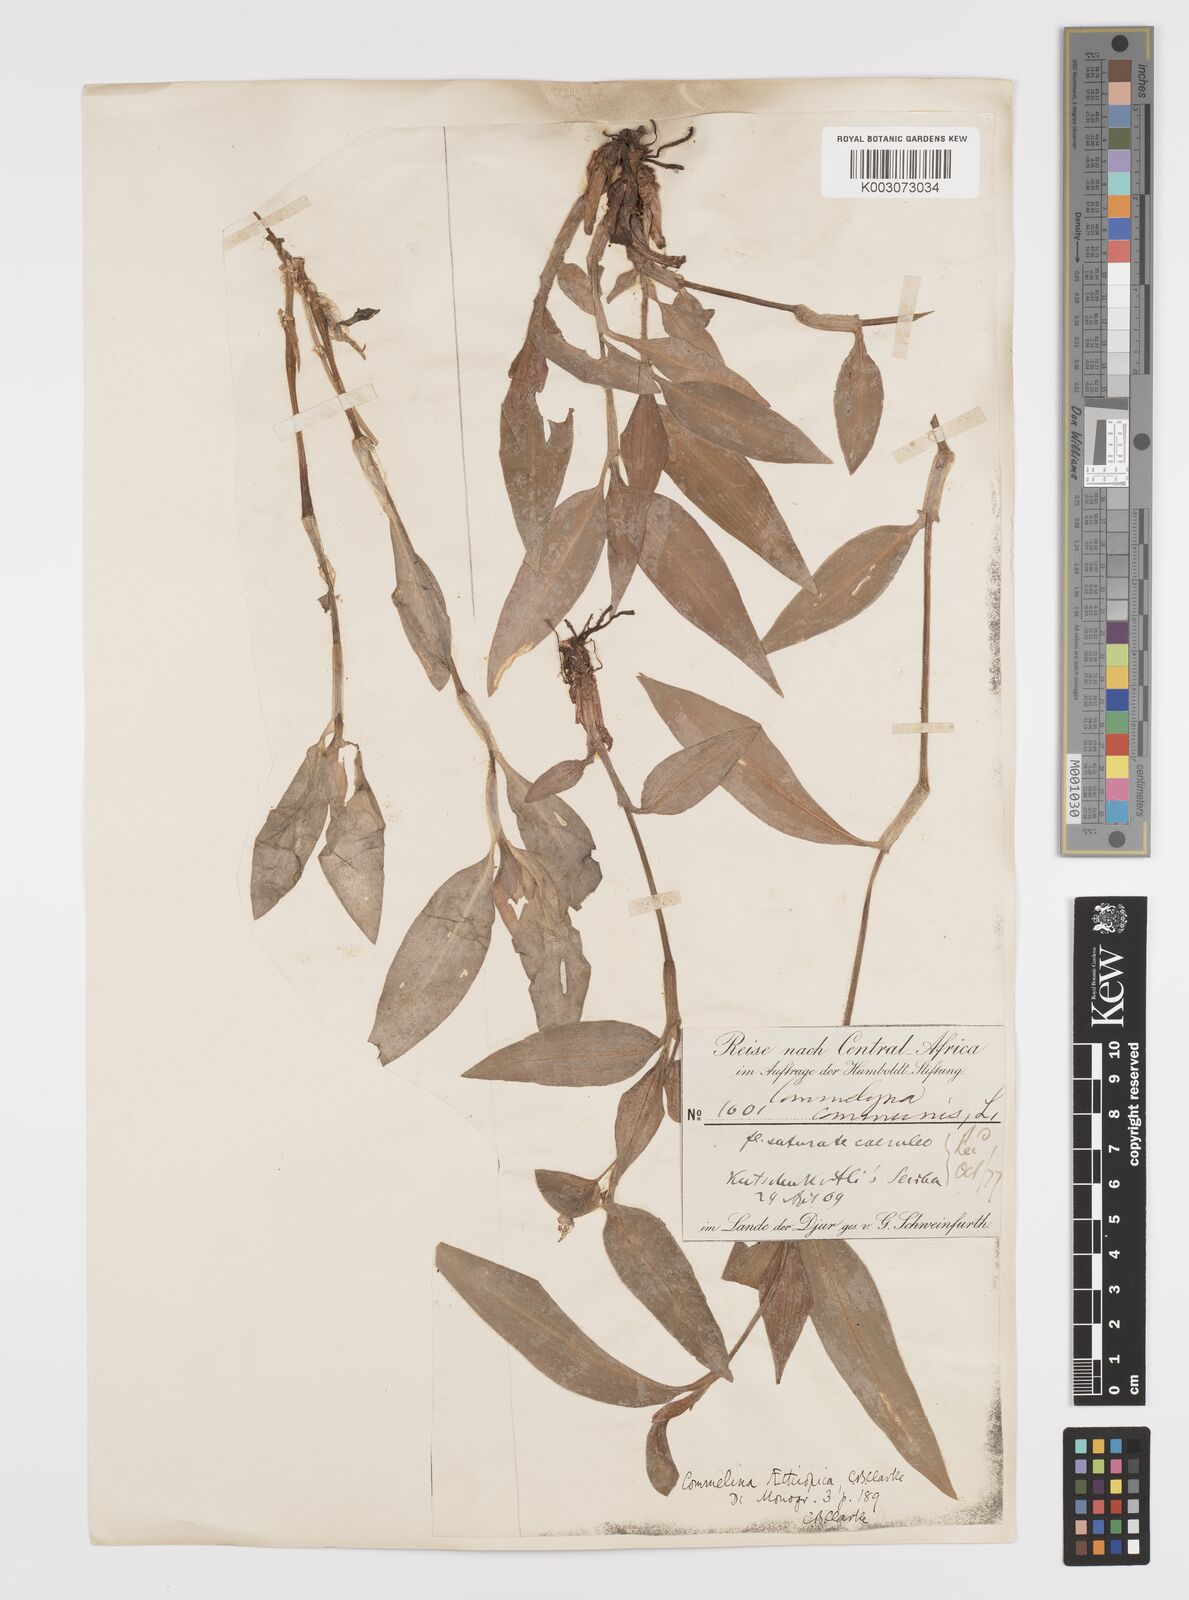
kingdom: Plantae
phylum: Tracheophyta
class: Liliopsida
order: Commelinales
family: Commelinaceae
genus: Commelina
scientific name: Commelina bracteosa
